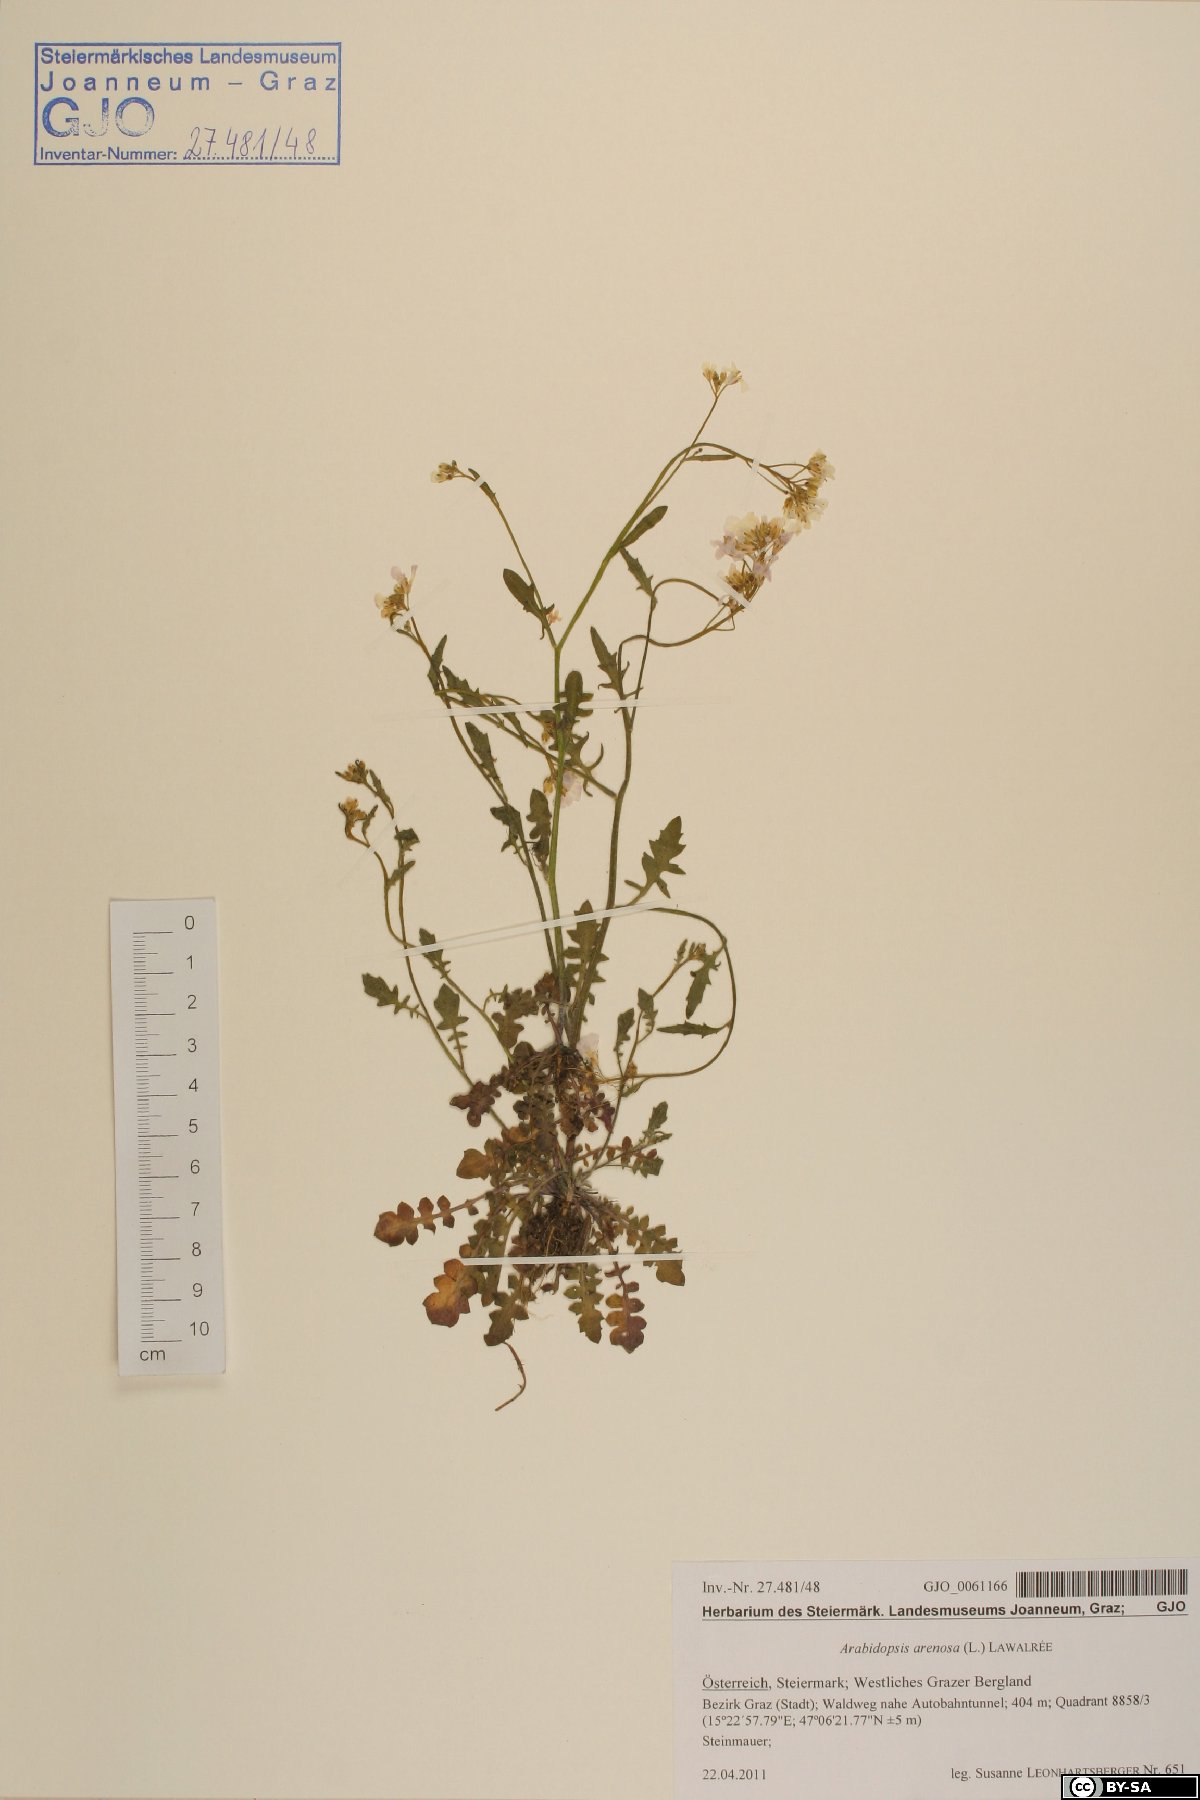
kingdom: Plantae
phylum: Tracheophyta
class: Magnoliopsida
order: Brassicales
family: Brassicaceae
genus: Arabidopsis
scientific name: Arabidopsis arenosa
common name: Sand rock-cress
